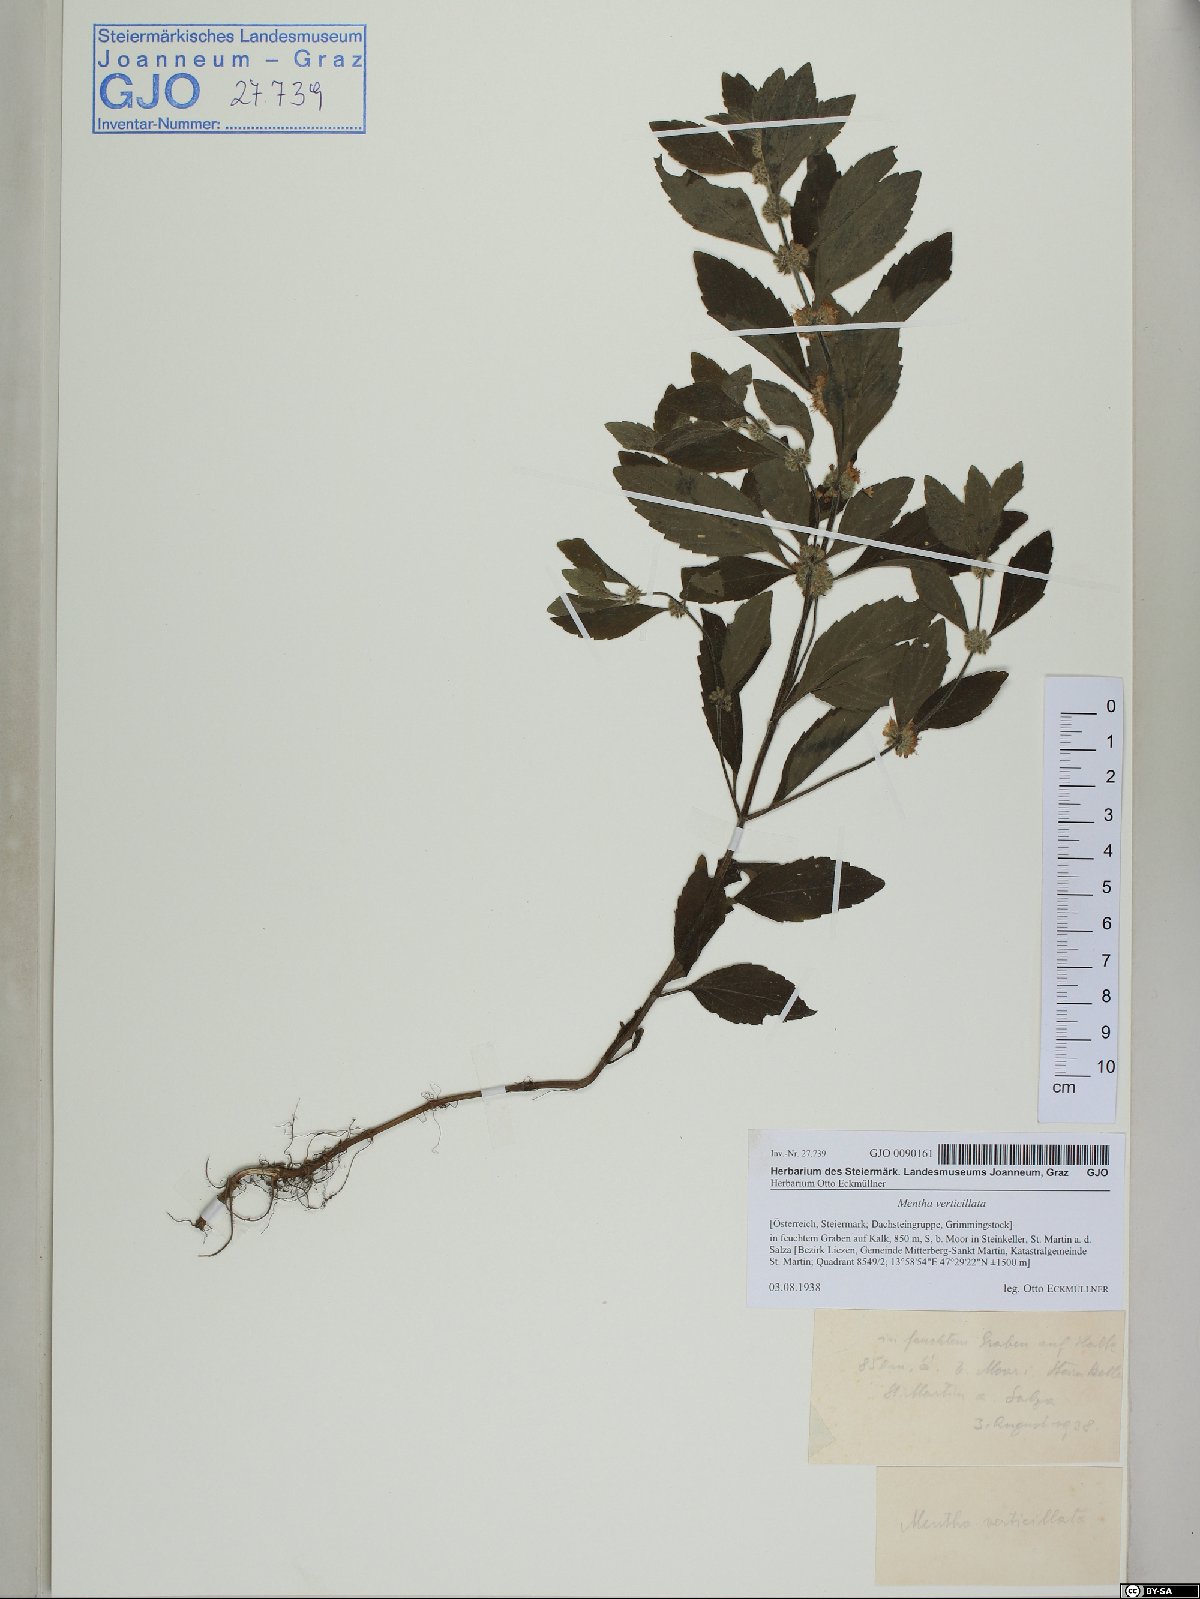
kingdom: Plantae
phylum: Tracheophyta
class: Magnoliopsida
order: Lamiales
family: Lamiaceae
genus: Mentha
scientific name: Mentha verticillata
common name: Mint
